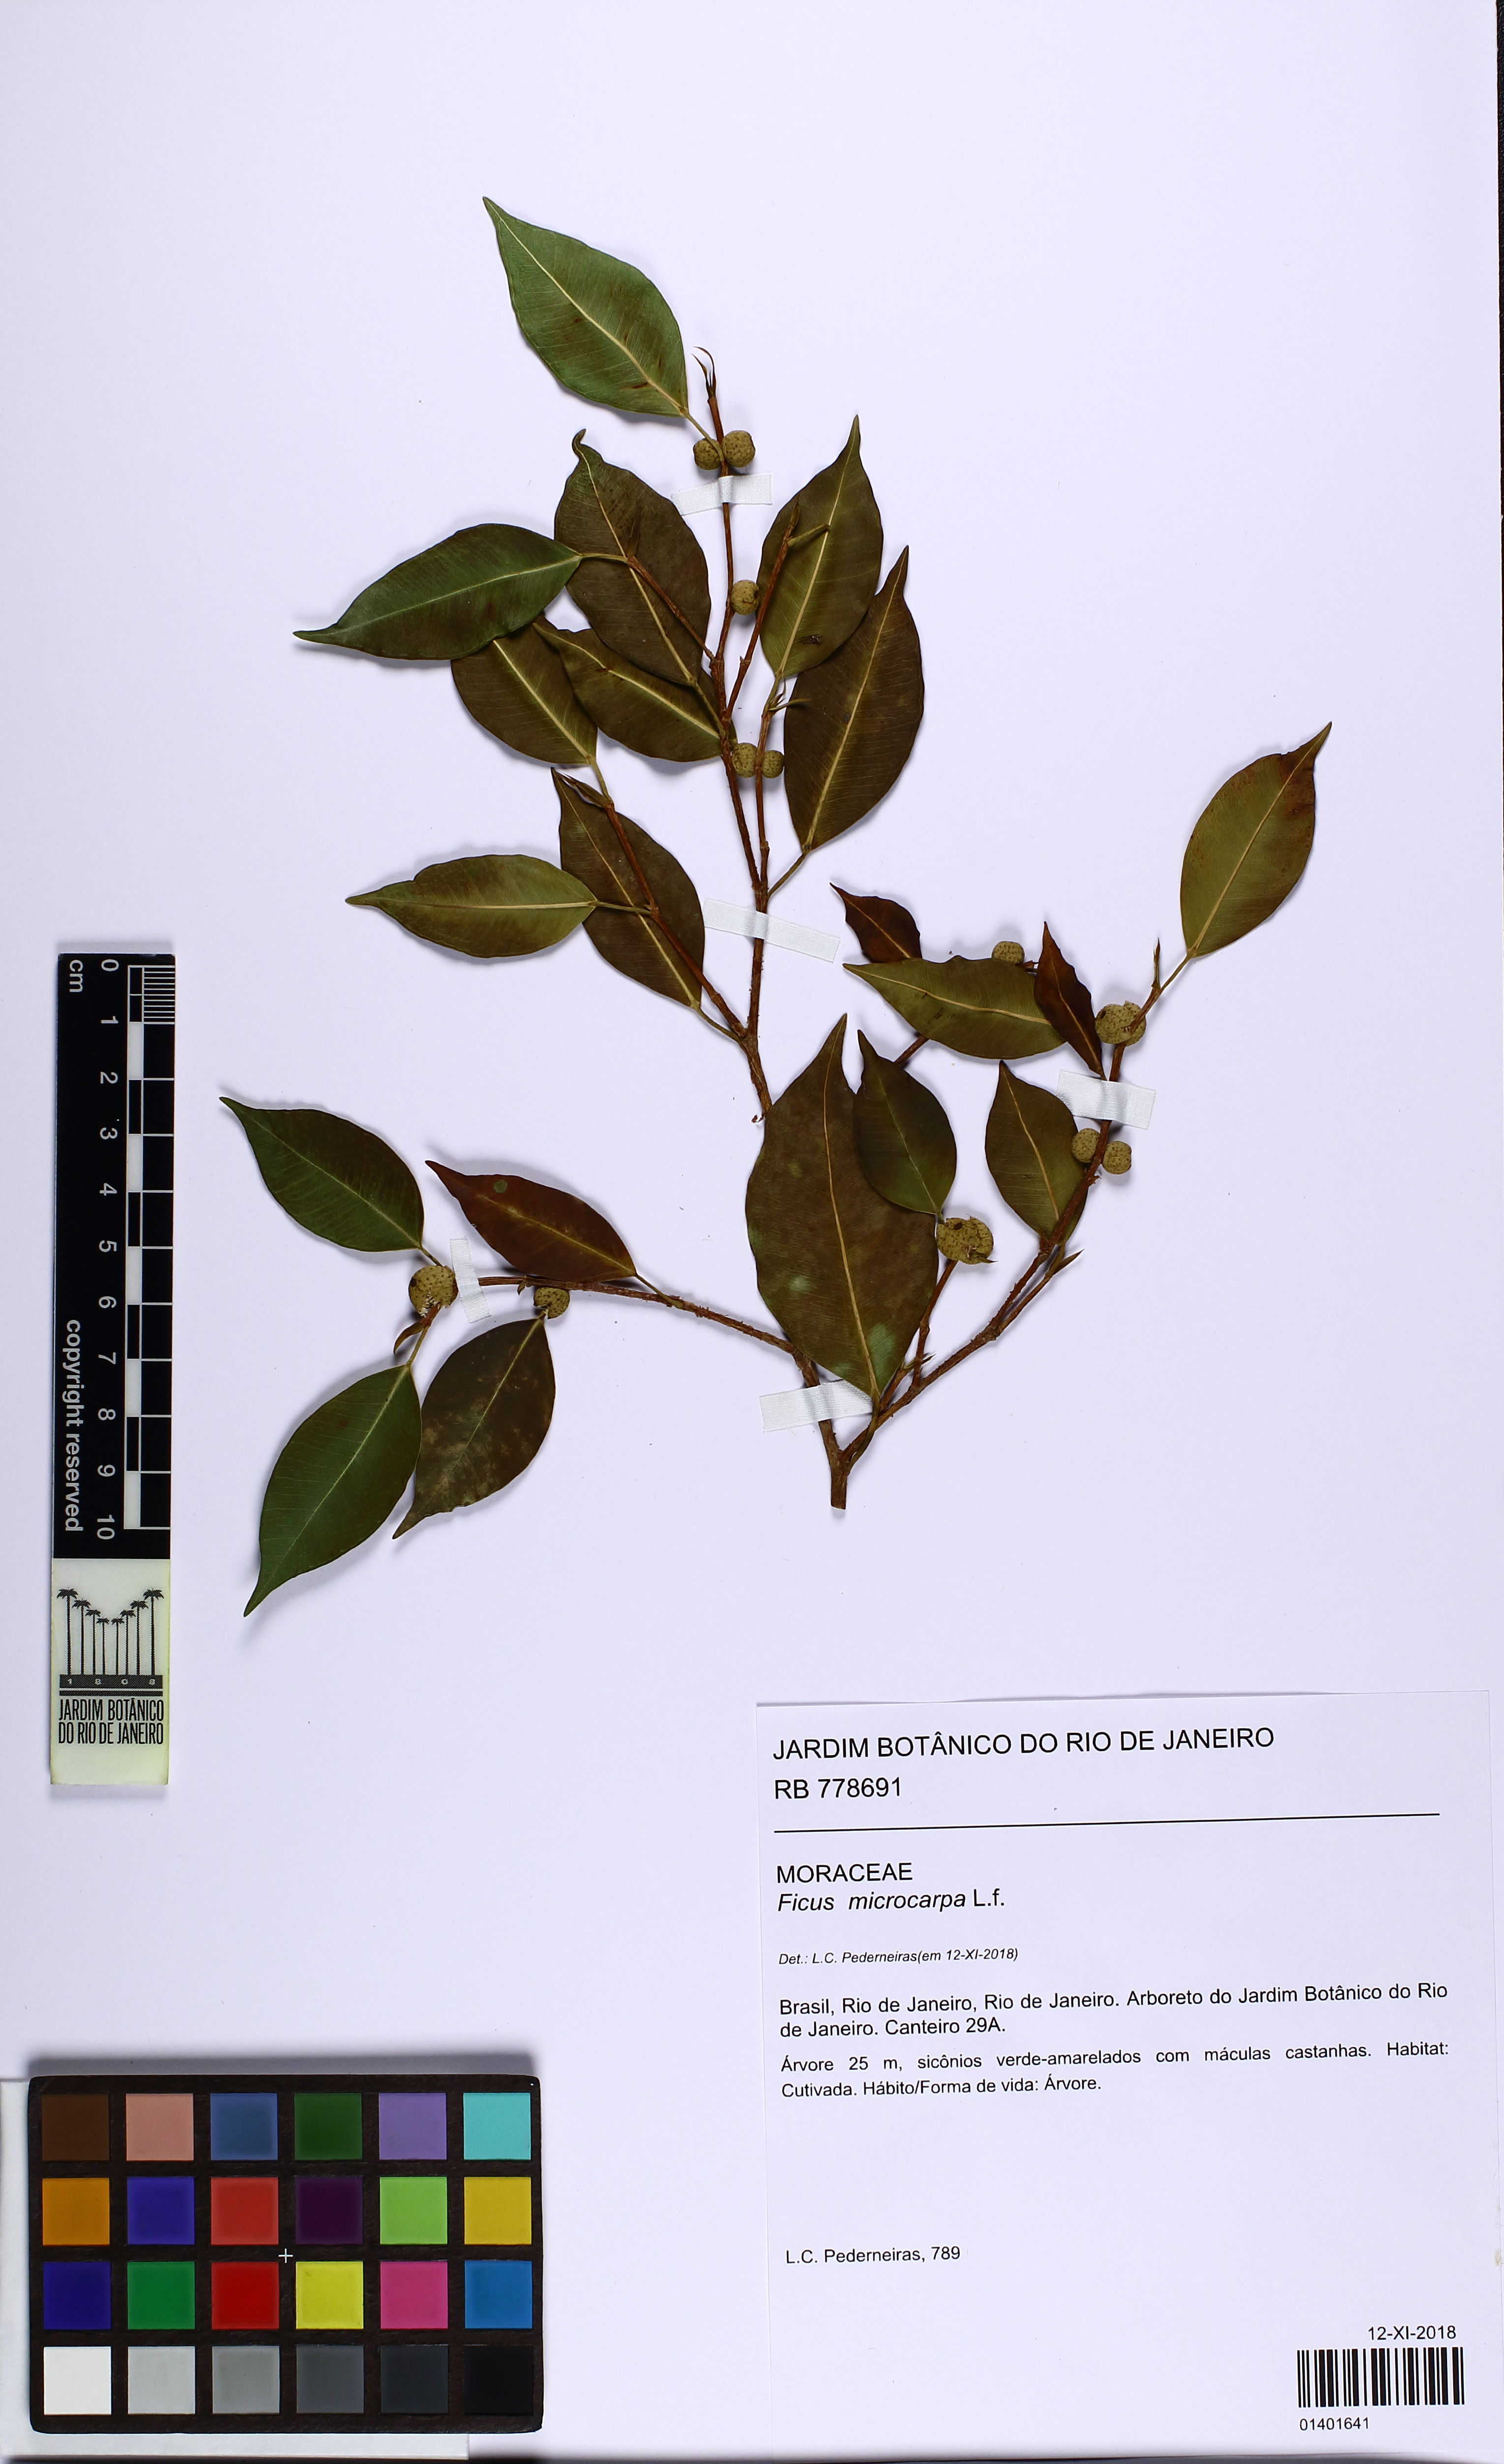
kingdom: Plantae
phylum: Tracheophyta
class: Magnoliopsida
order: Rosales
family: Moraceae
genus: Ficus
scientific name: Ficus microcarpa
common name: Chinese banyan
